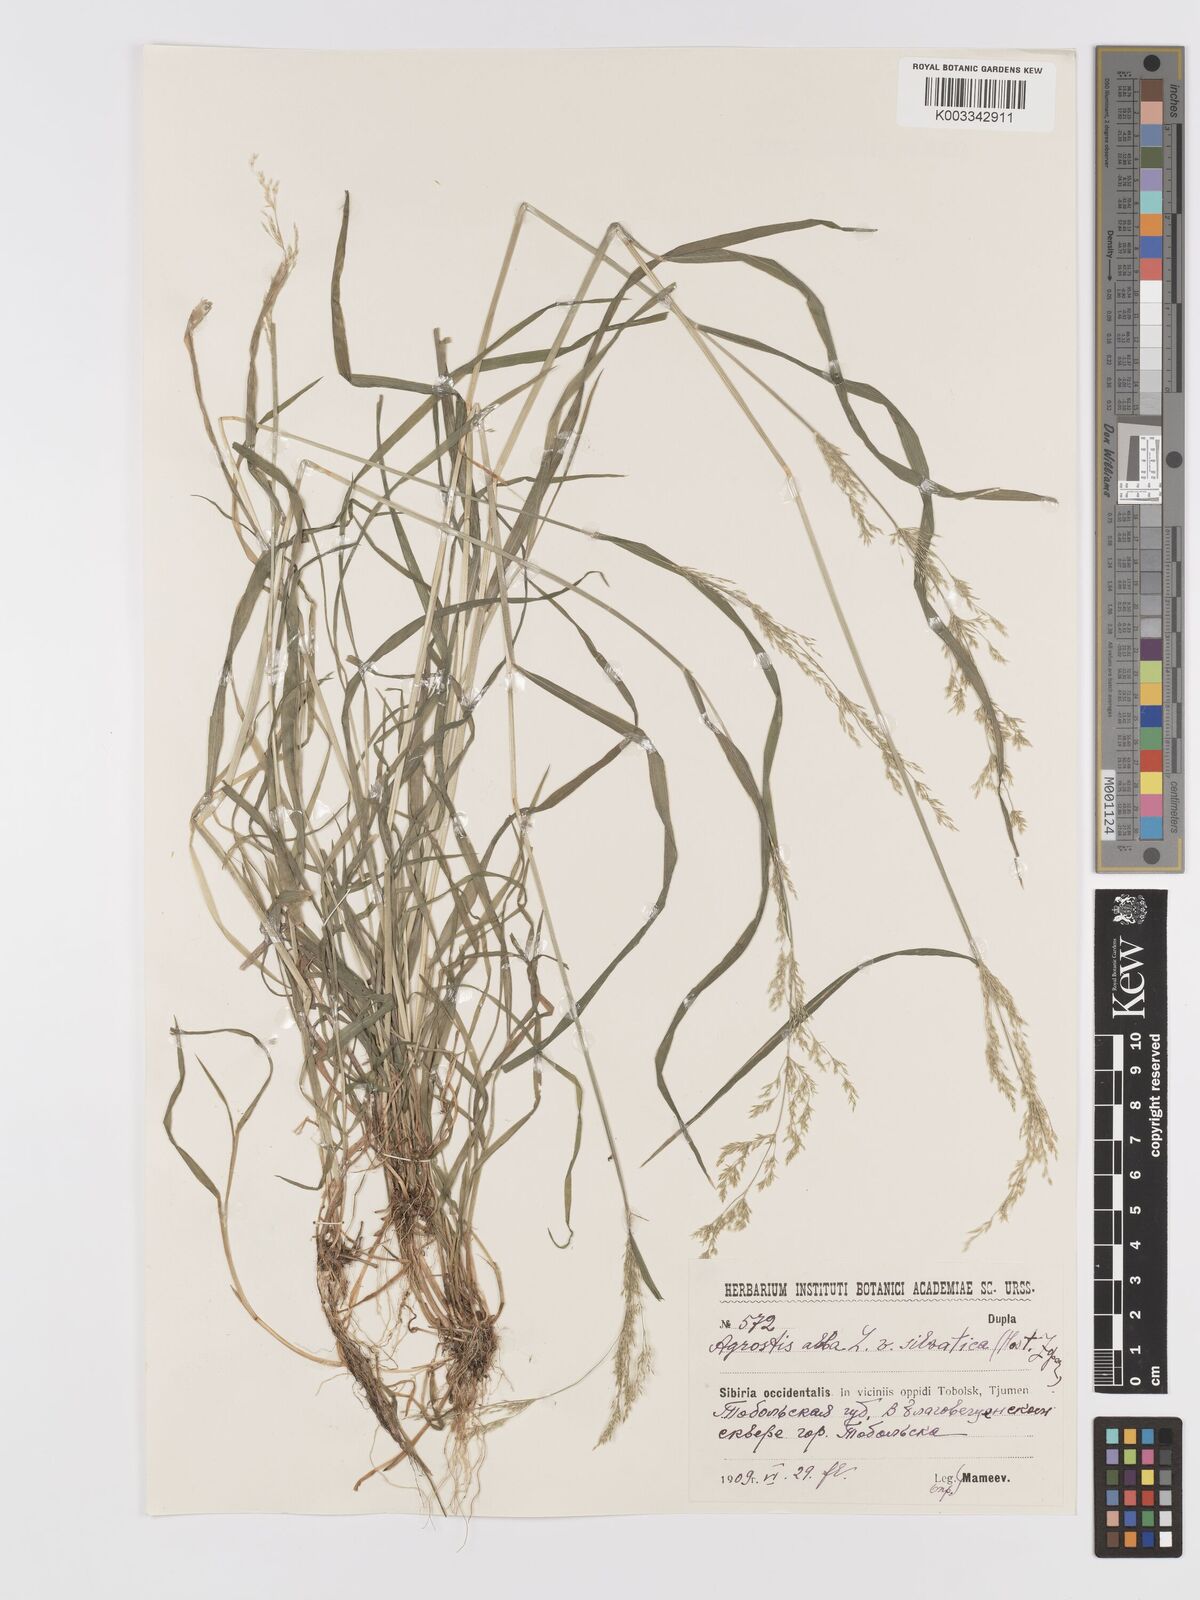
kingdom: Plantae
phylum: Tracheophyta
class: Liliopsida
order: Poales
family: Poaceae
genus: Agrostis
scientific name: Agrostis gigantea
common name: Black bent
